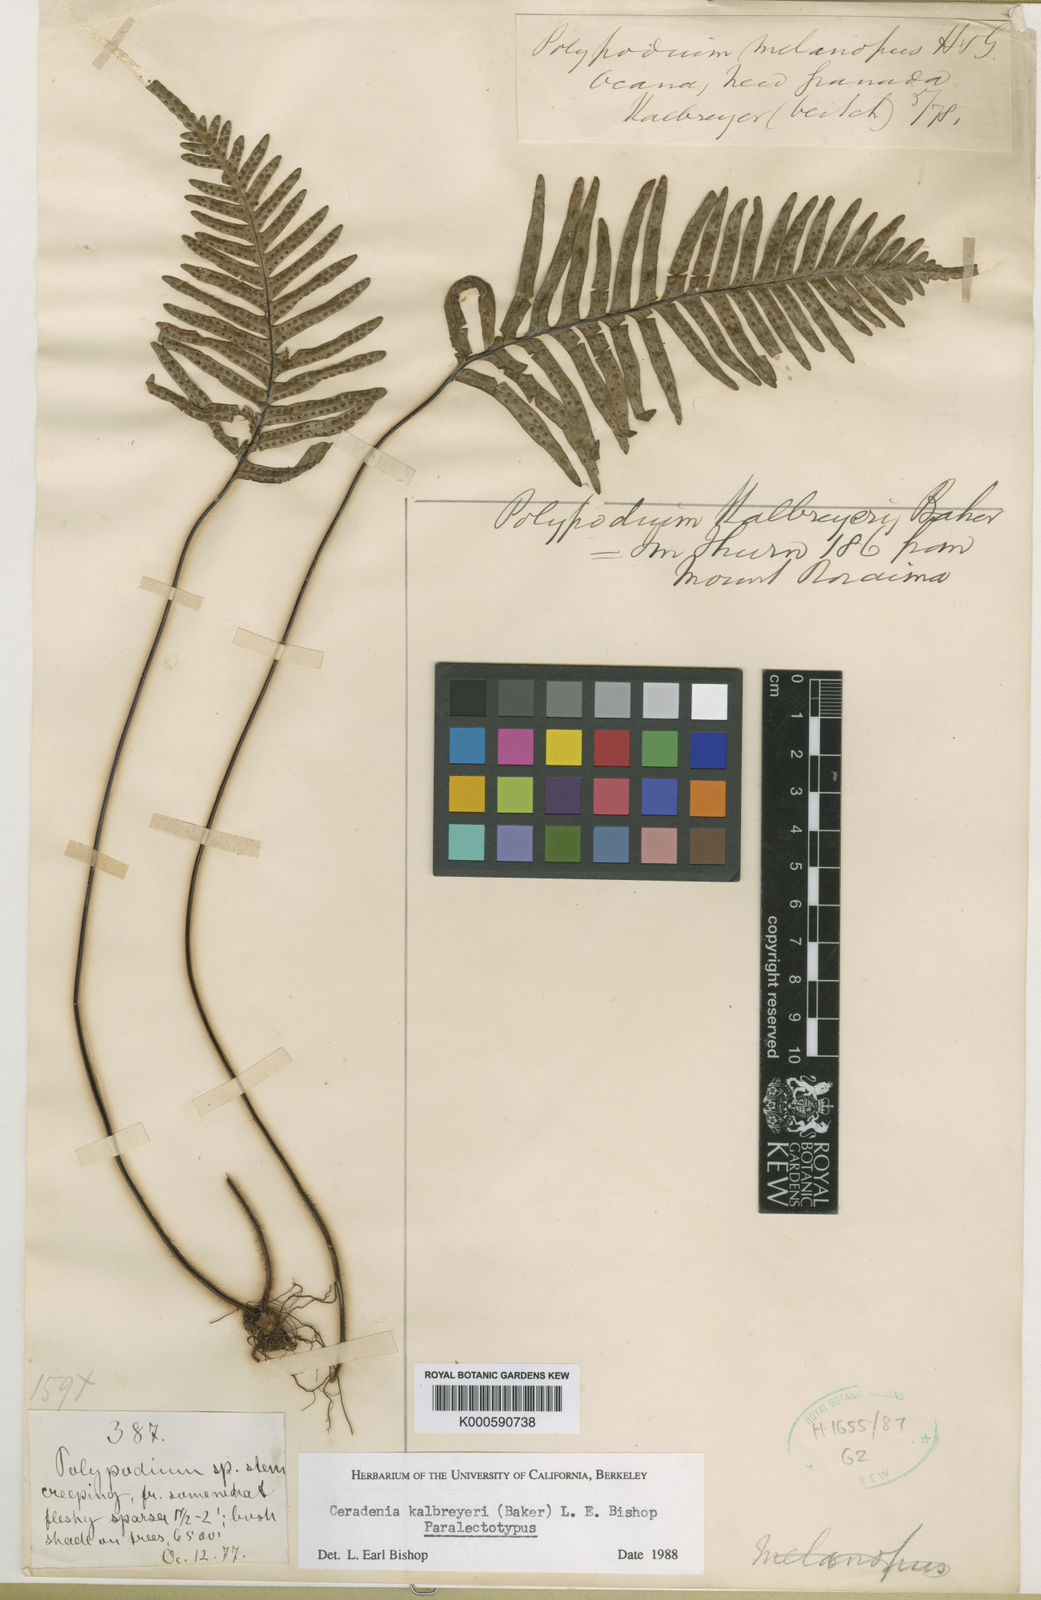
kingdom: Plantae
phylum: Tracheophyta
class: Polypodiopsida
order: Polypodiales
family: Polypodiaceae
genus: Ceradenia
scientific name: Ceradenia kalbreyeri
